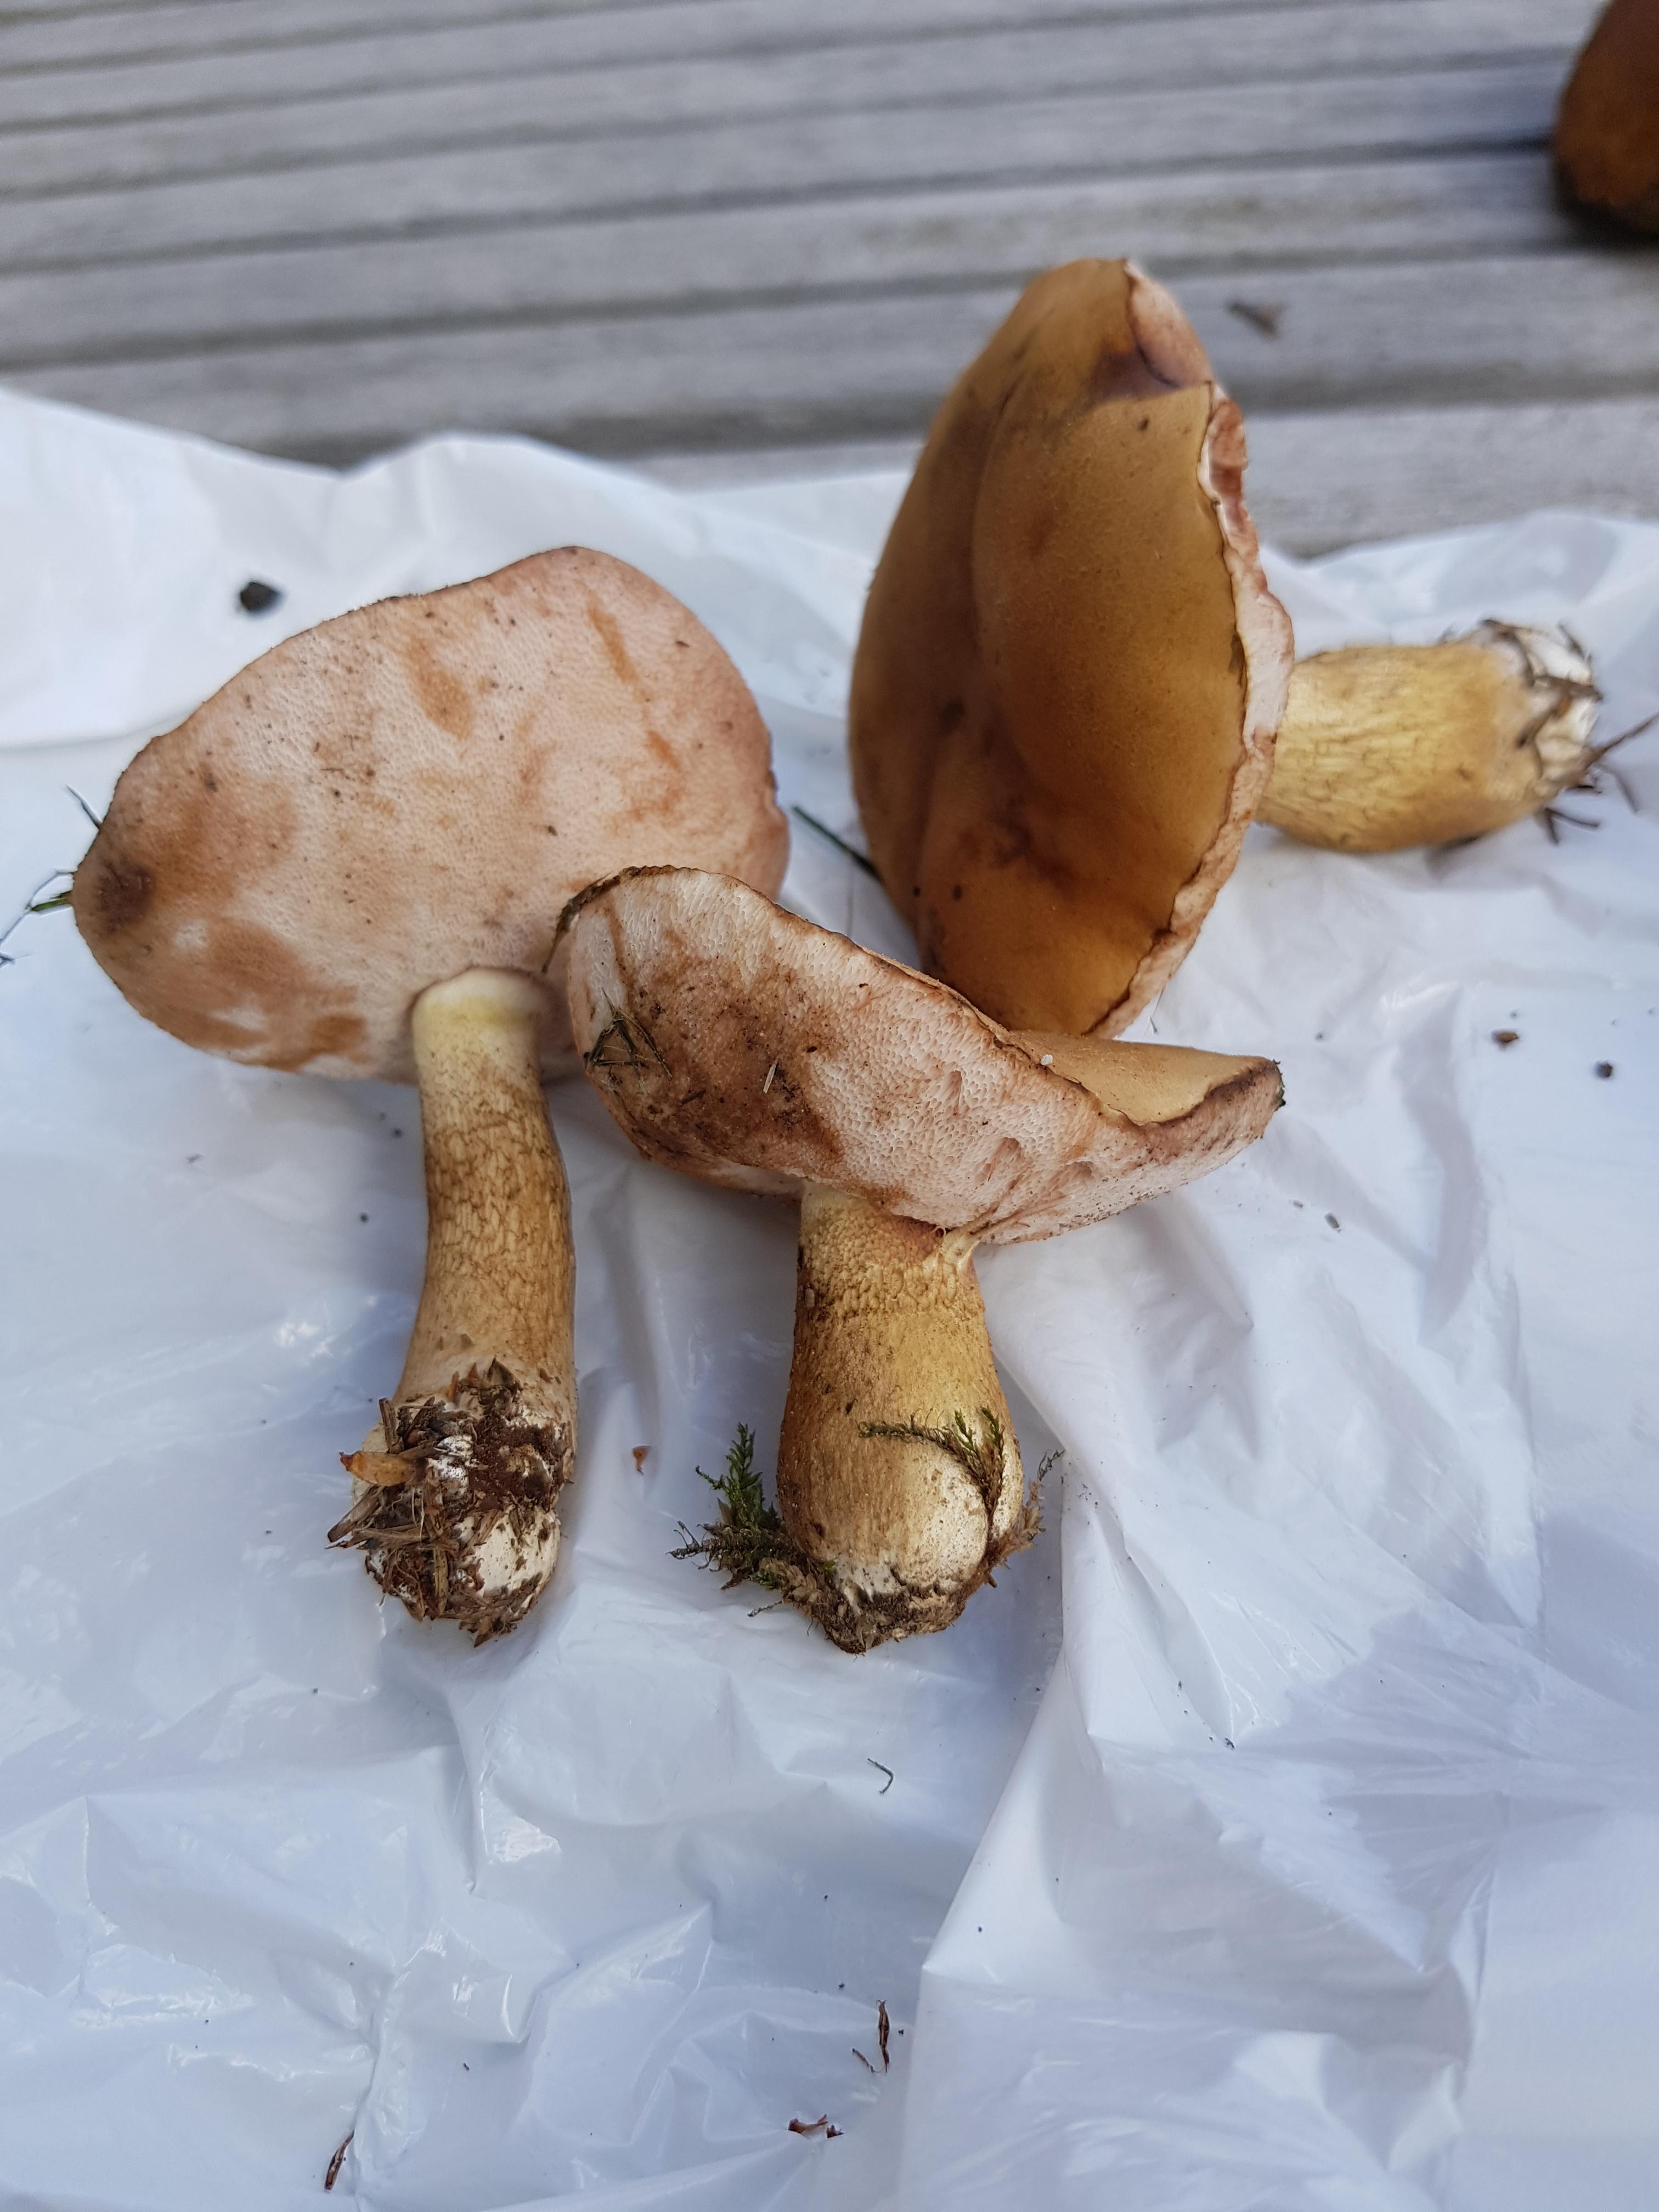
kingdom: Fungi
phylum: Basidiomycota
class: Agaricomycetes
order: Boletales
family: Boletaceae
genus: Tylopilus
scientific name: Tylopilus felleus
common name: galderørhat
